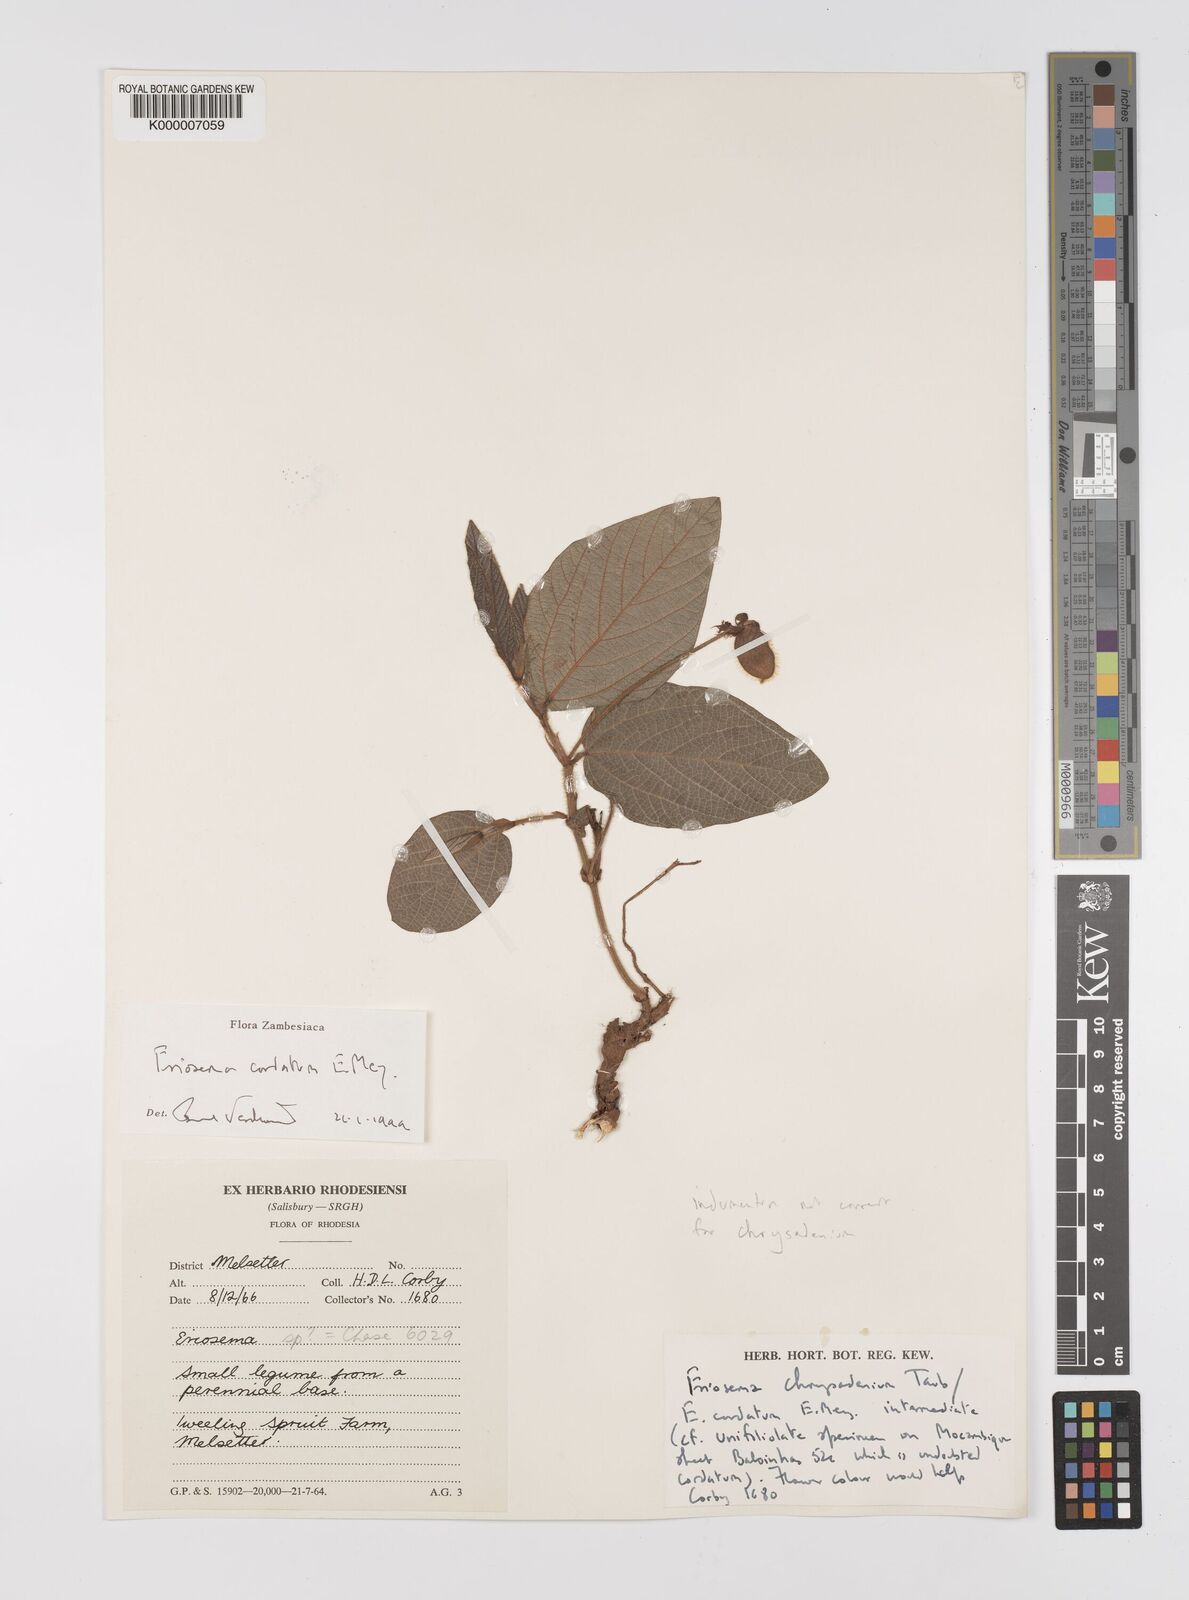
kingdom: Plantae
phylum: Tracheophyta
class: Magnoliopsida
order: Fabales
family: Fabaceae
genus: Eriosema
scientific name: Eriosema cordatum
